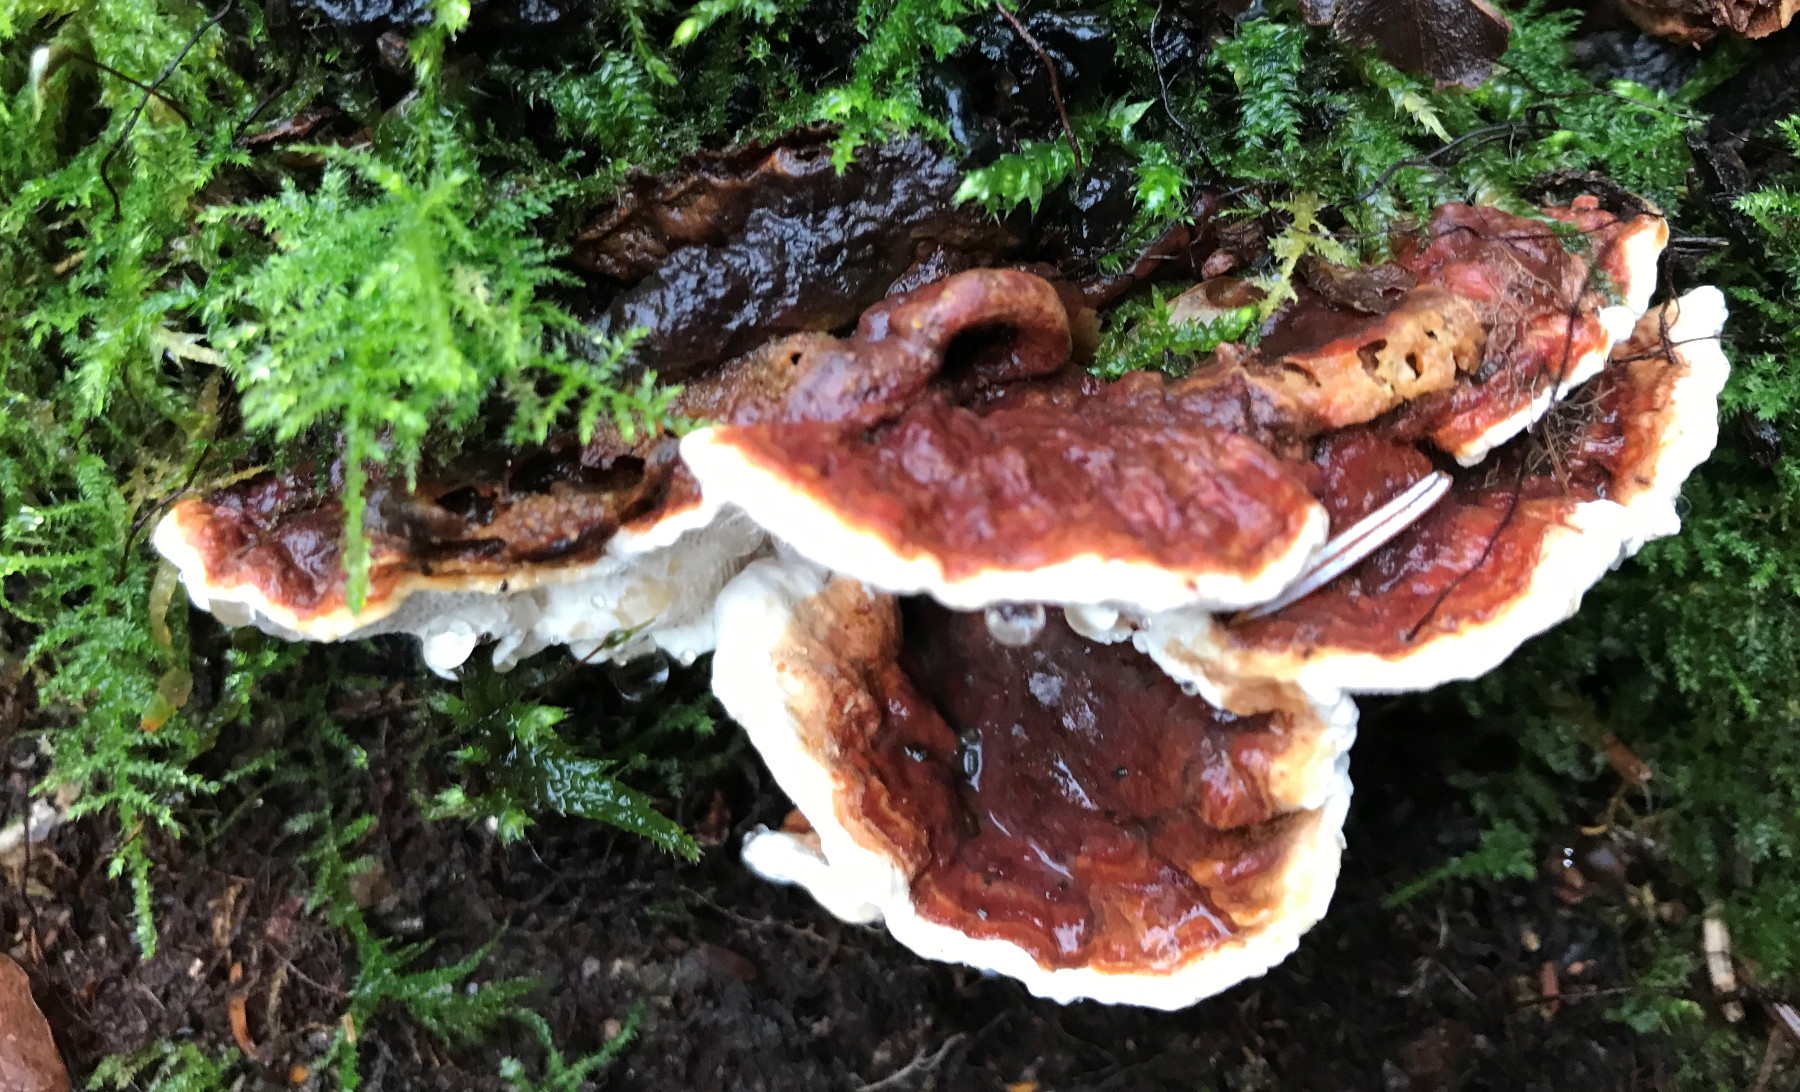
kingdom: Fungi
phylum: Basidiomycota
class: Agaricomycetes
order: Russulales
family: Bondarzewiaceae
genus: Heterobasidion
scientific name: Heterobasidion annosum
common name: almindelig rodfordærver
